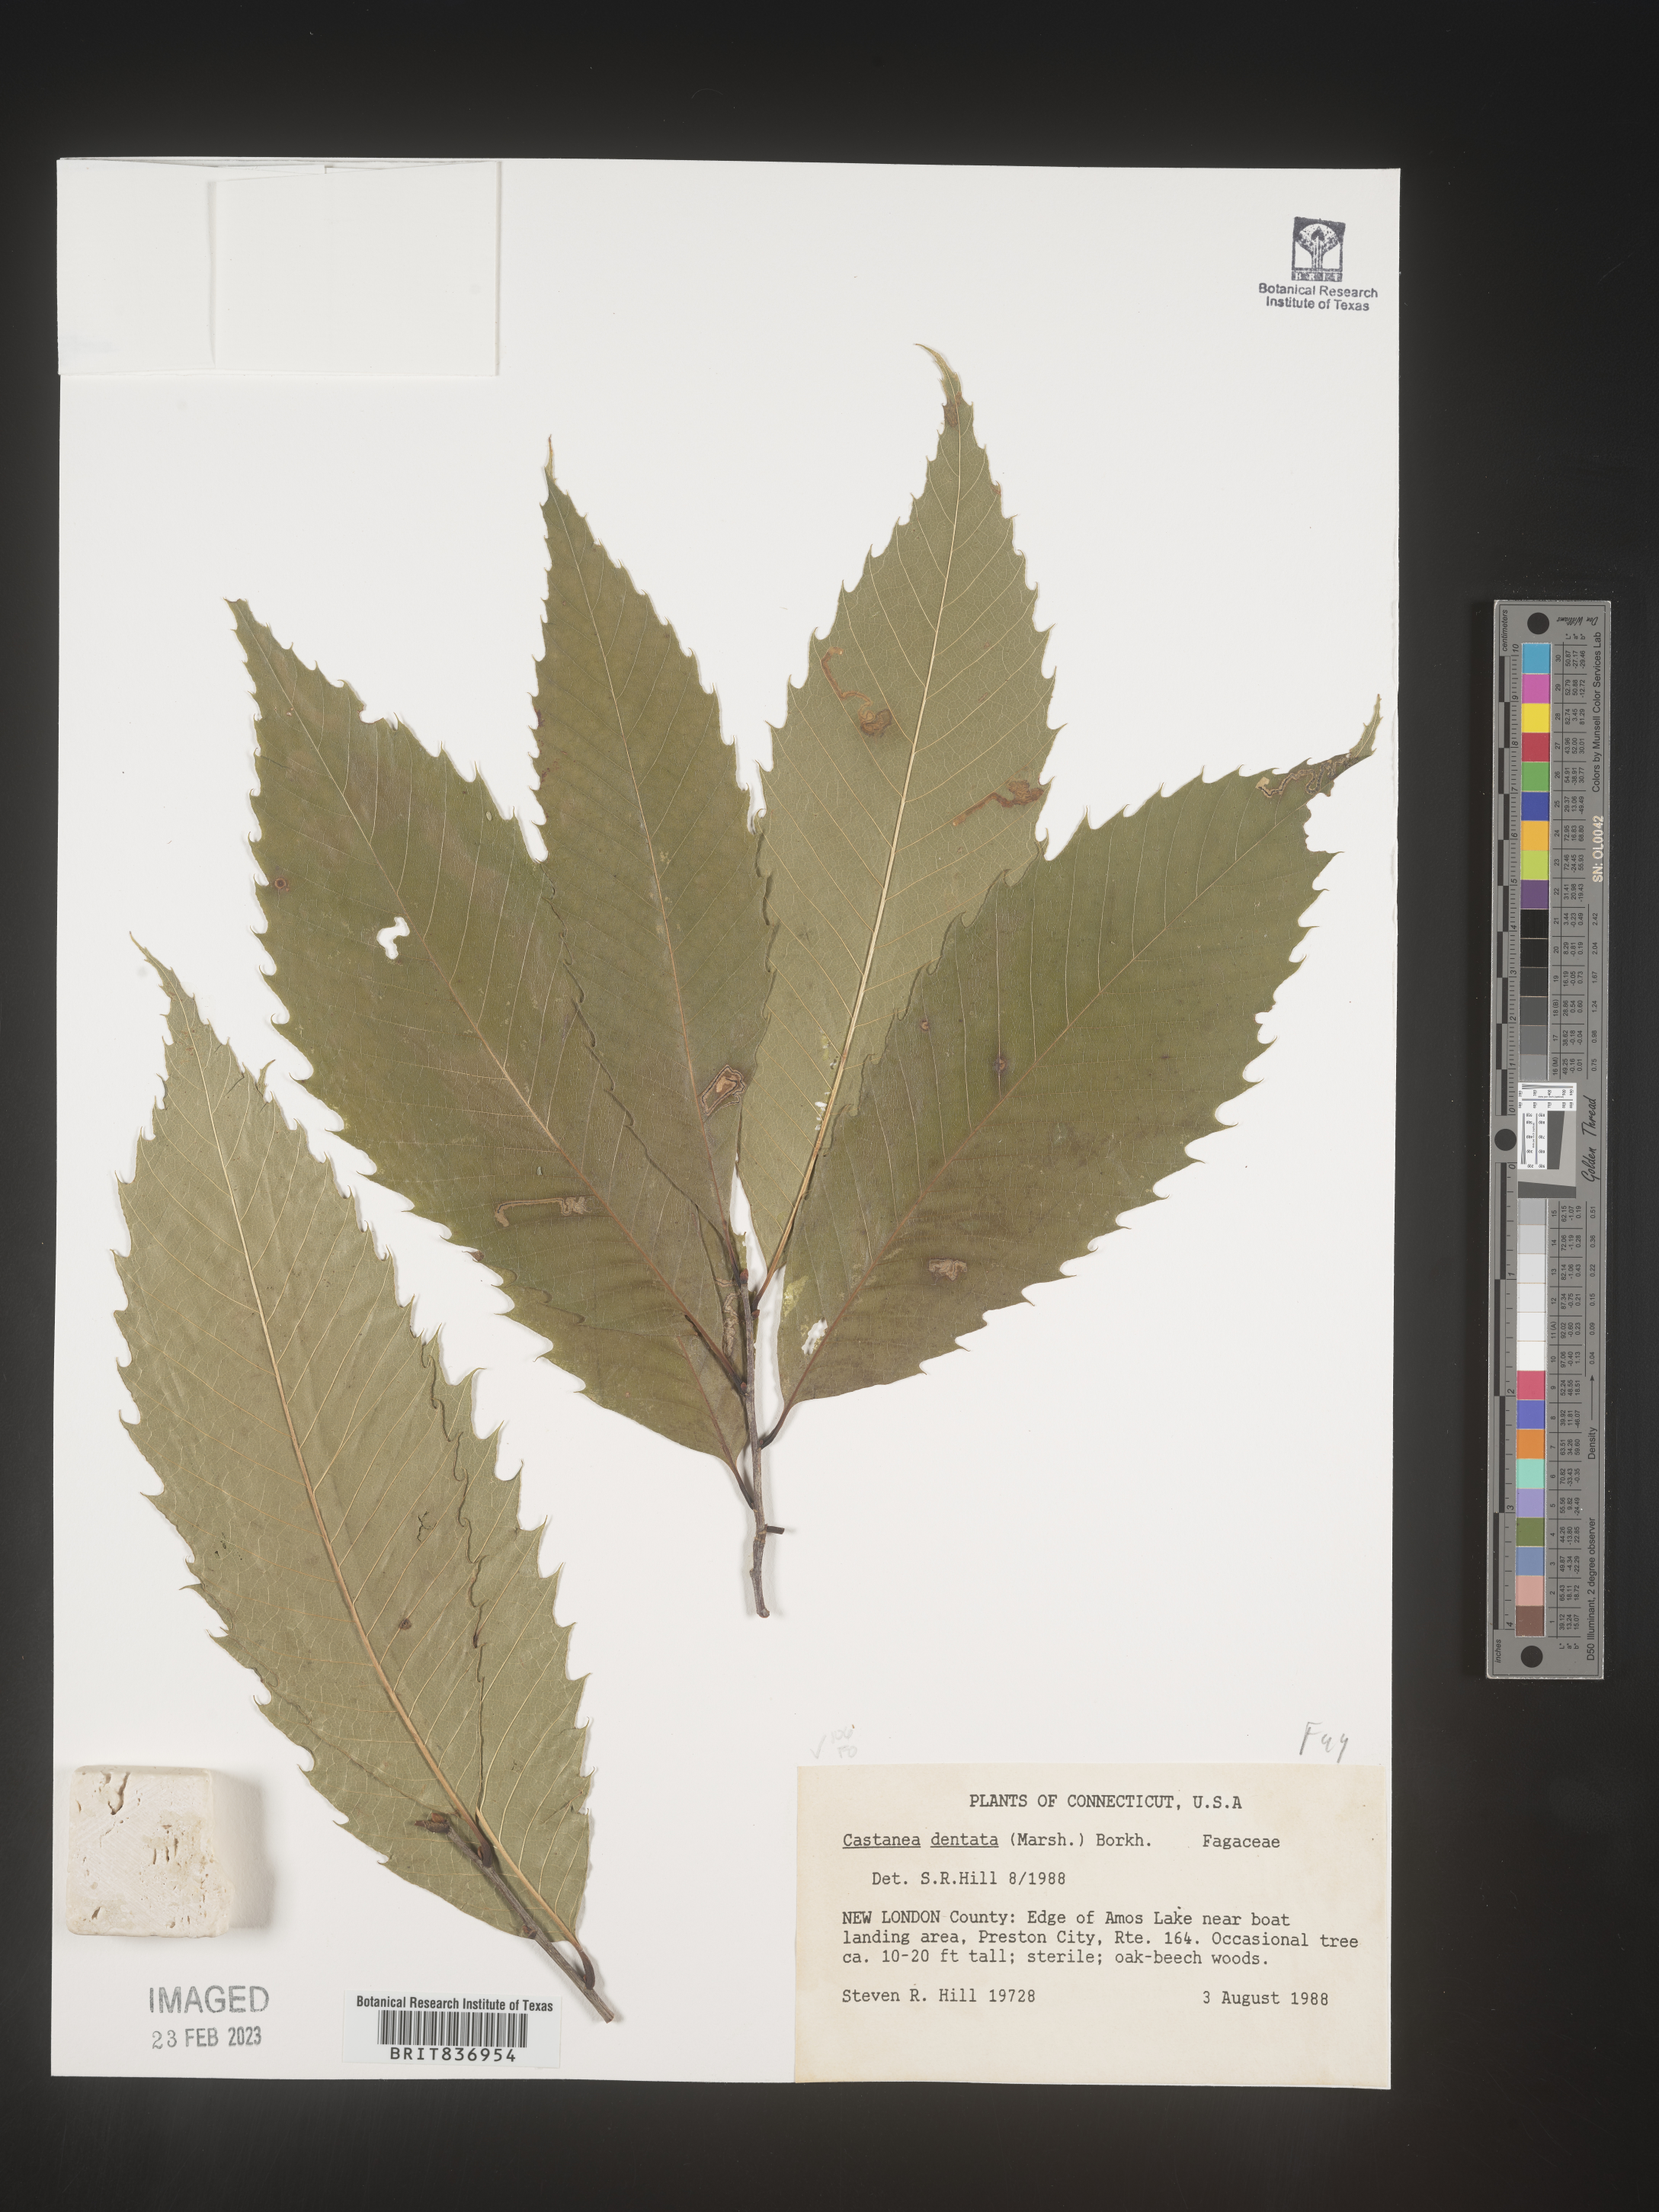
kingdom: Plantae
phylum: Tracheophyta
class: Magnoliopsida
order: Fagales
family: Fagaceae
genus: Castanea
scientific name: Castanea dentata
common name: American chestnut
